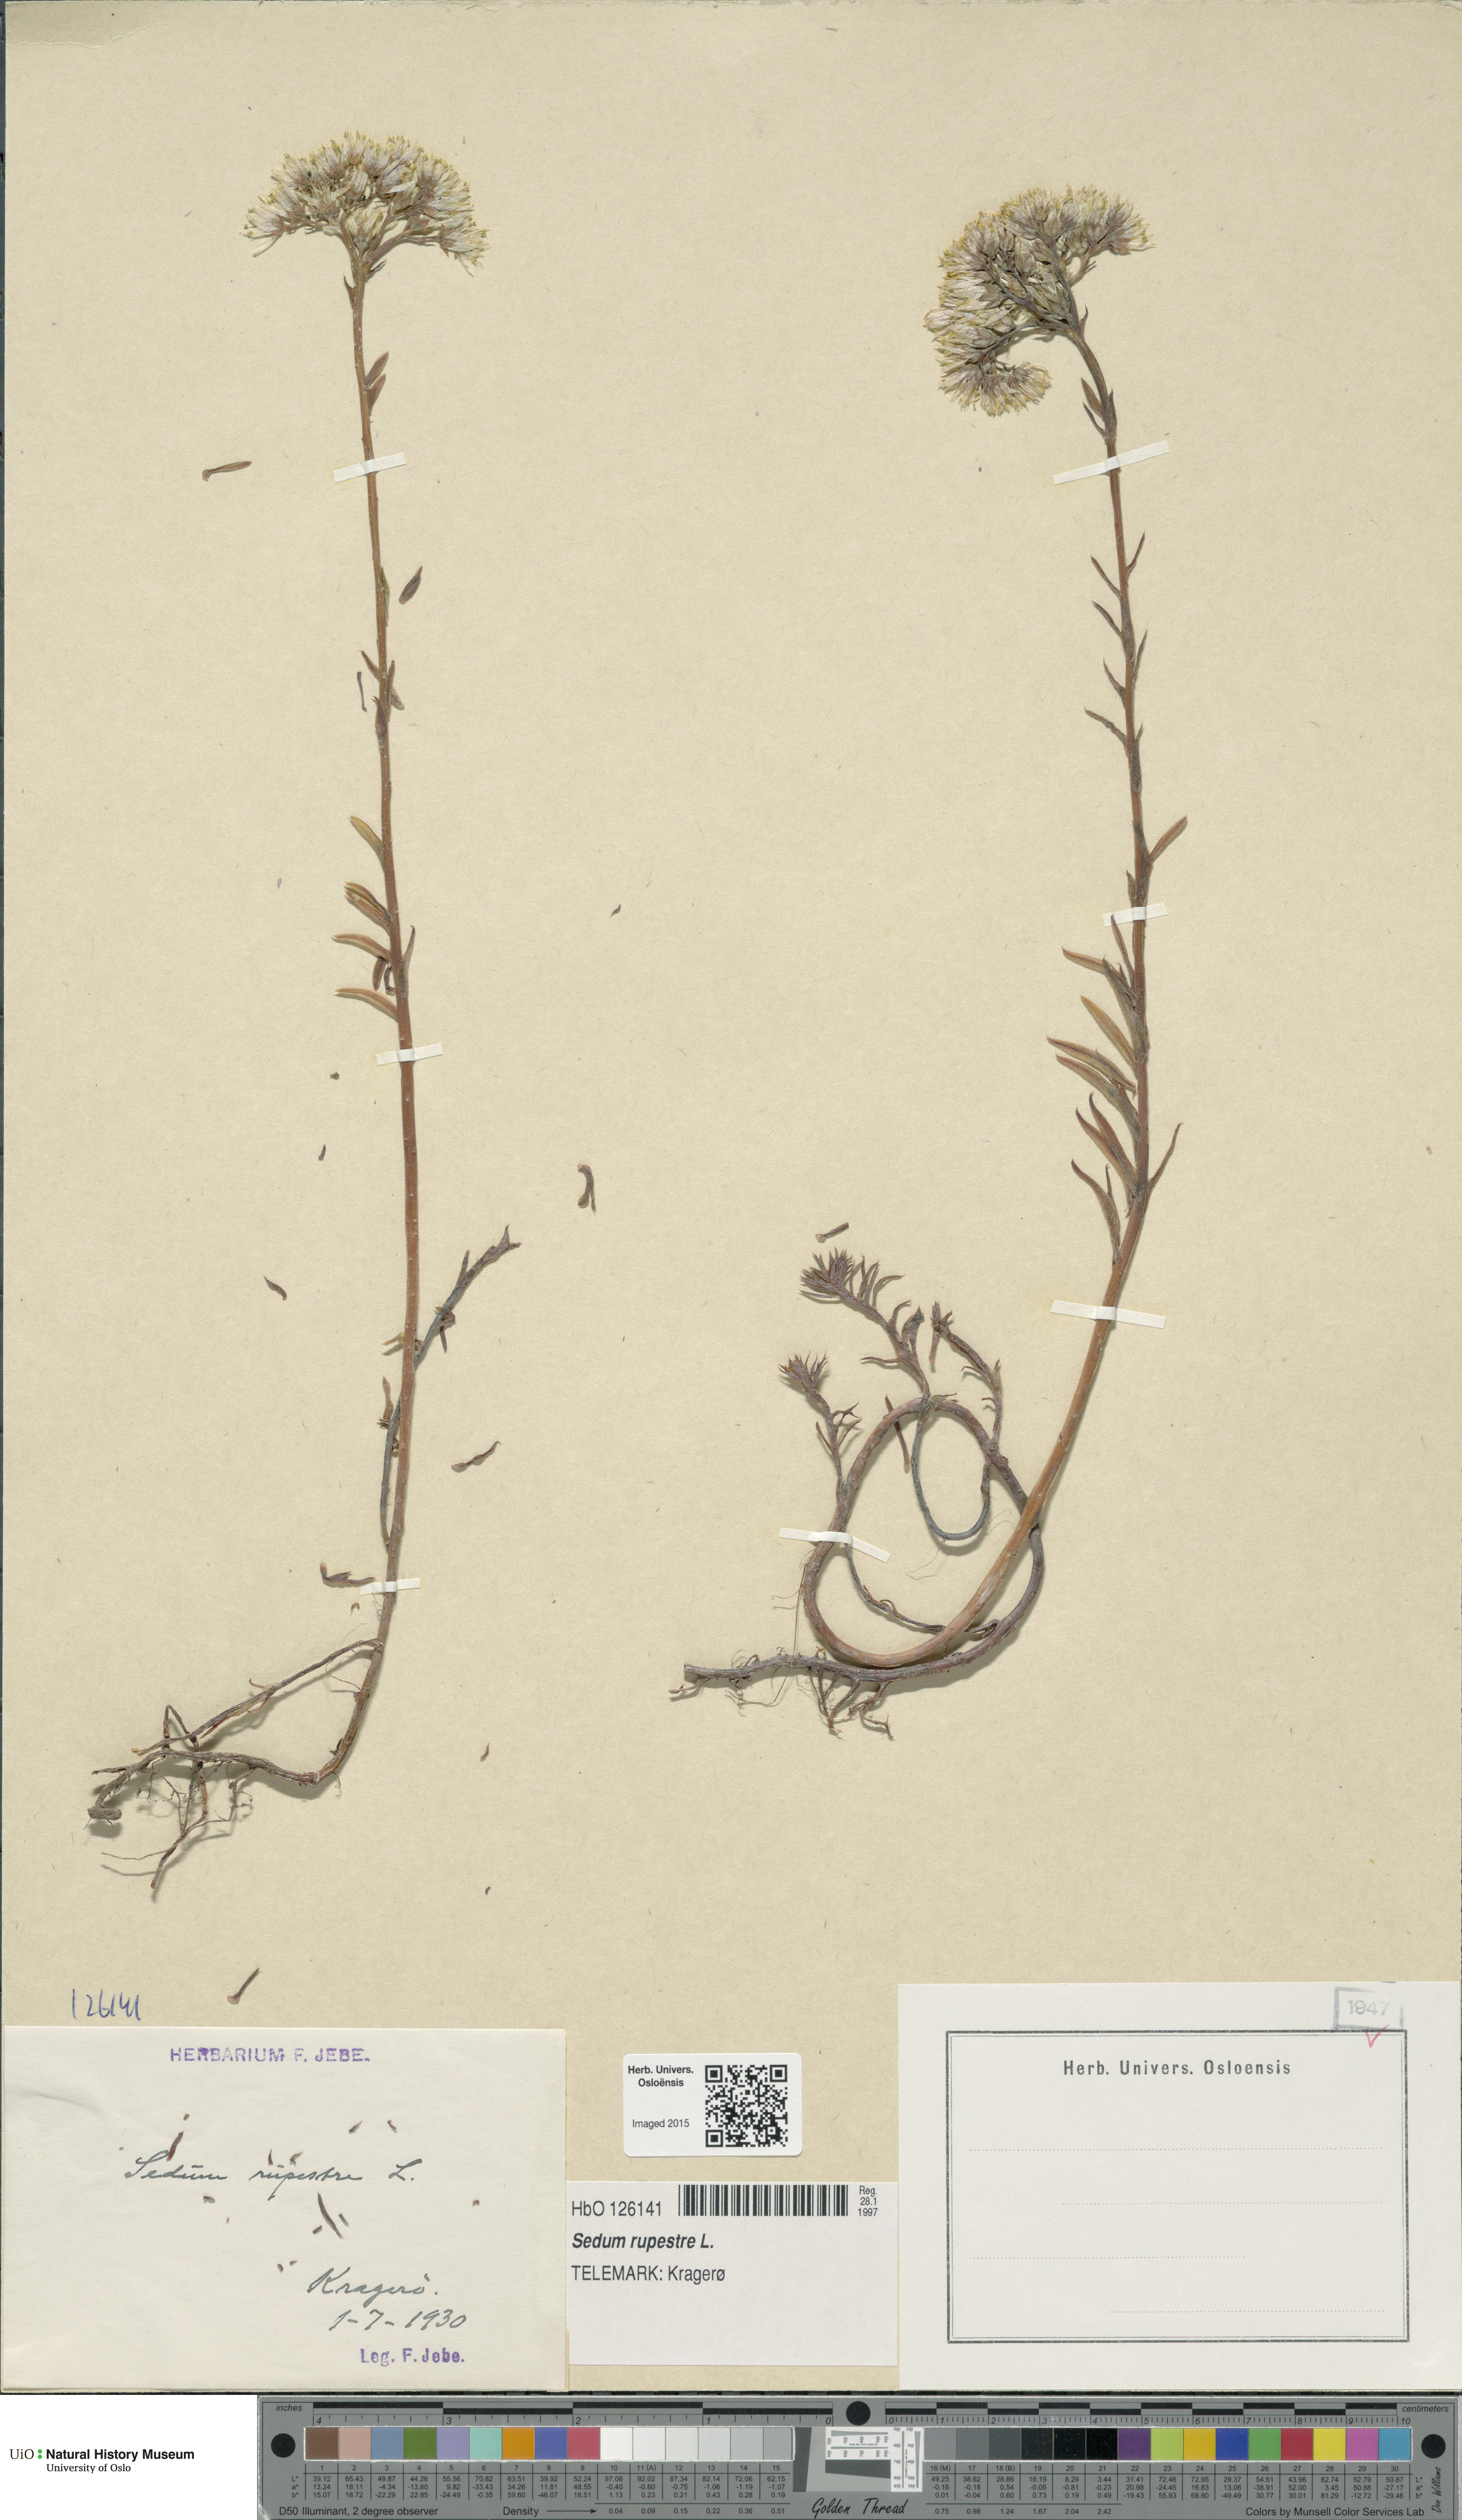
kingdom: Plantae
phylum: Tracheophyta
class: Magnoliopsida
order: Saxifragales
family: Crassulaceae
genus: Petrosedum
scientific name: Petrosedum rupestre
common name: Jenny's stonecrop
